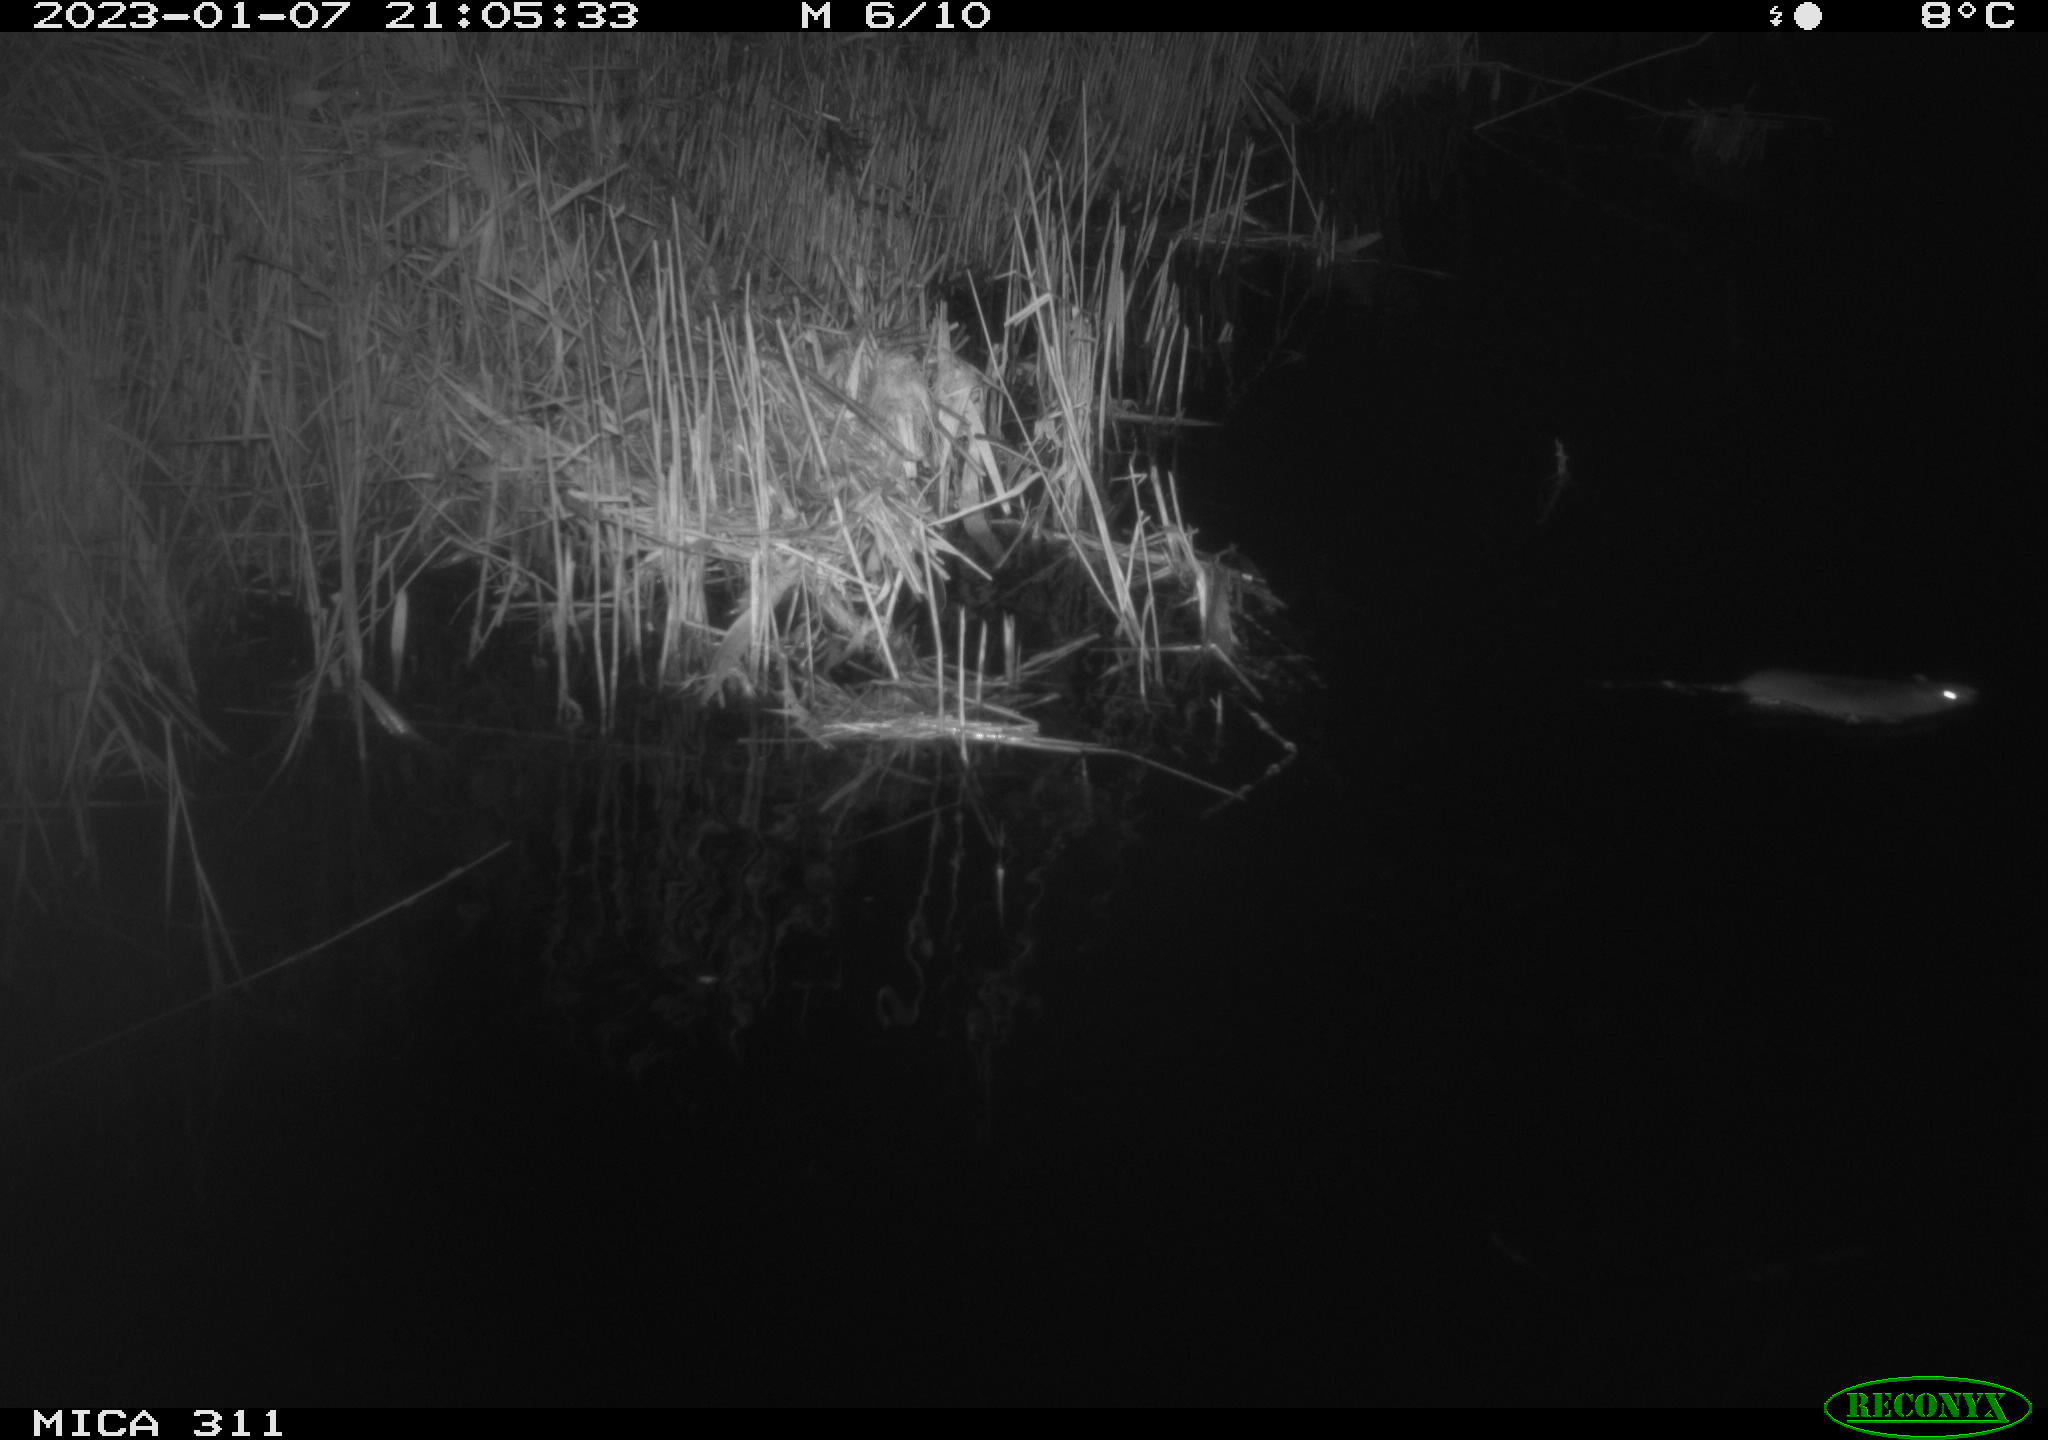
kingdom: Animalia
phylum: Chordata
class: Mammalia
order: Rodentia
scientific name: Rodentia
